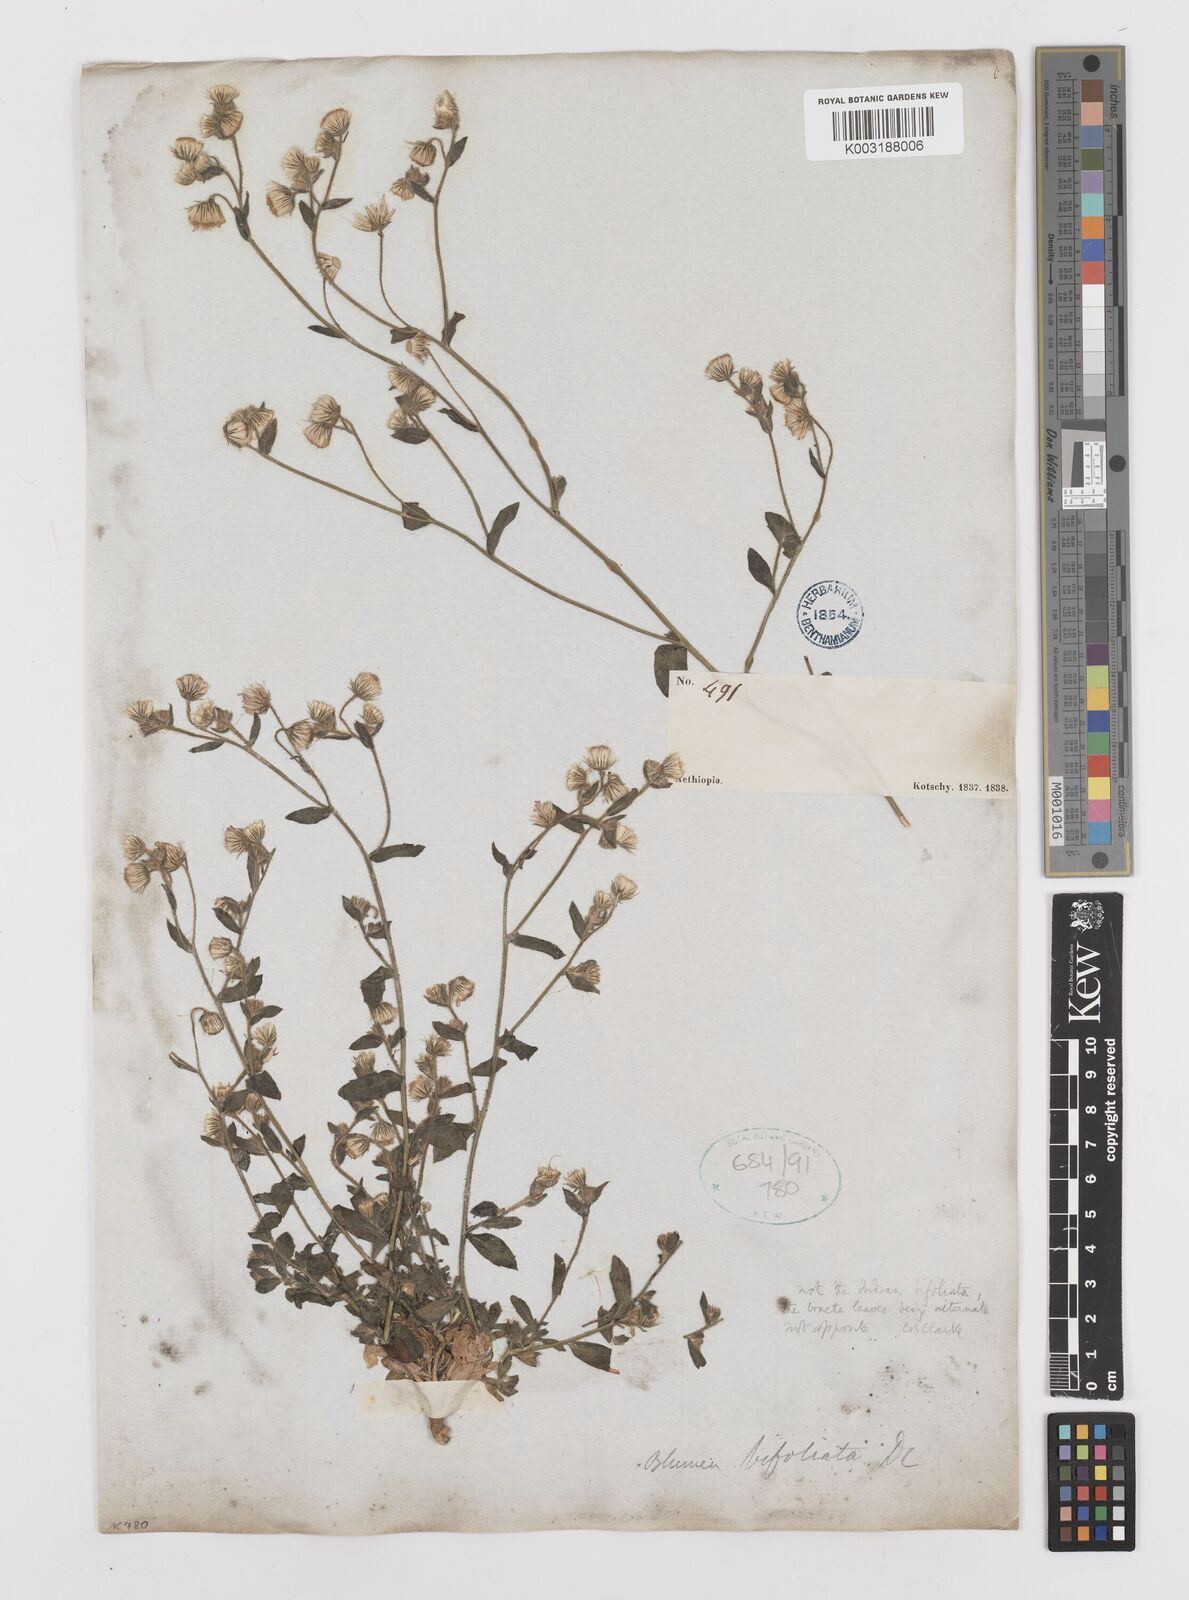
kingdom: Plantae
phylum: Tracheophyta
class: Magnoliopsida
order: Asterales
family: Asteraceae
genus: Laggera
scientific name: Laggera
